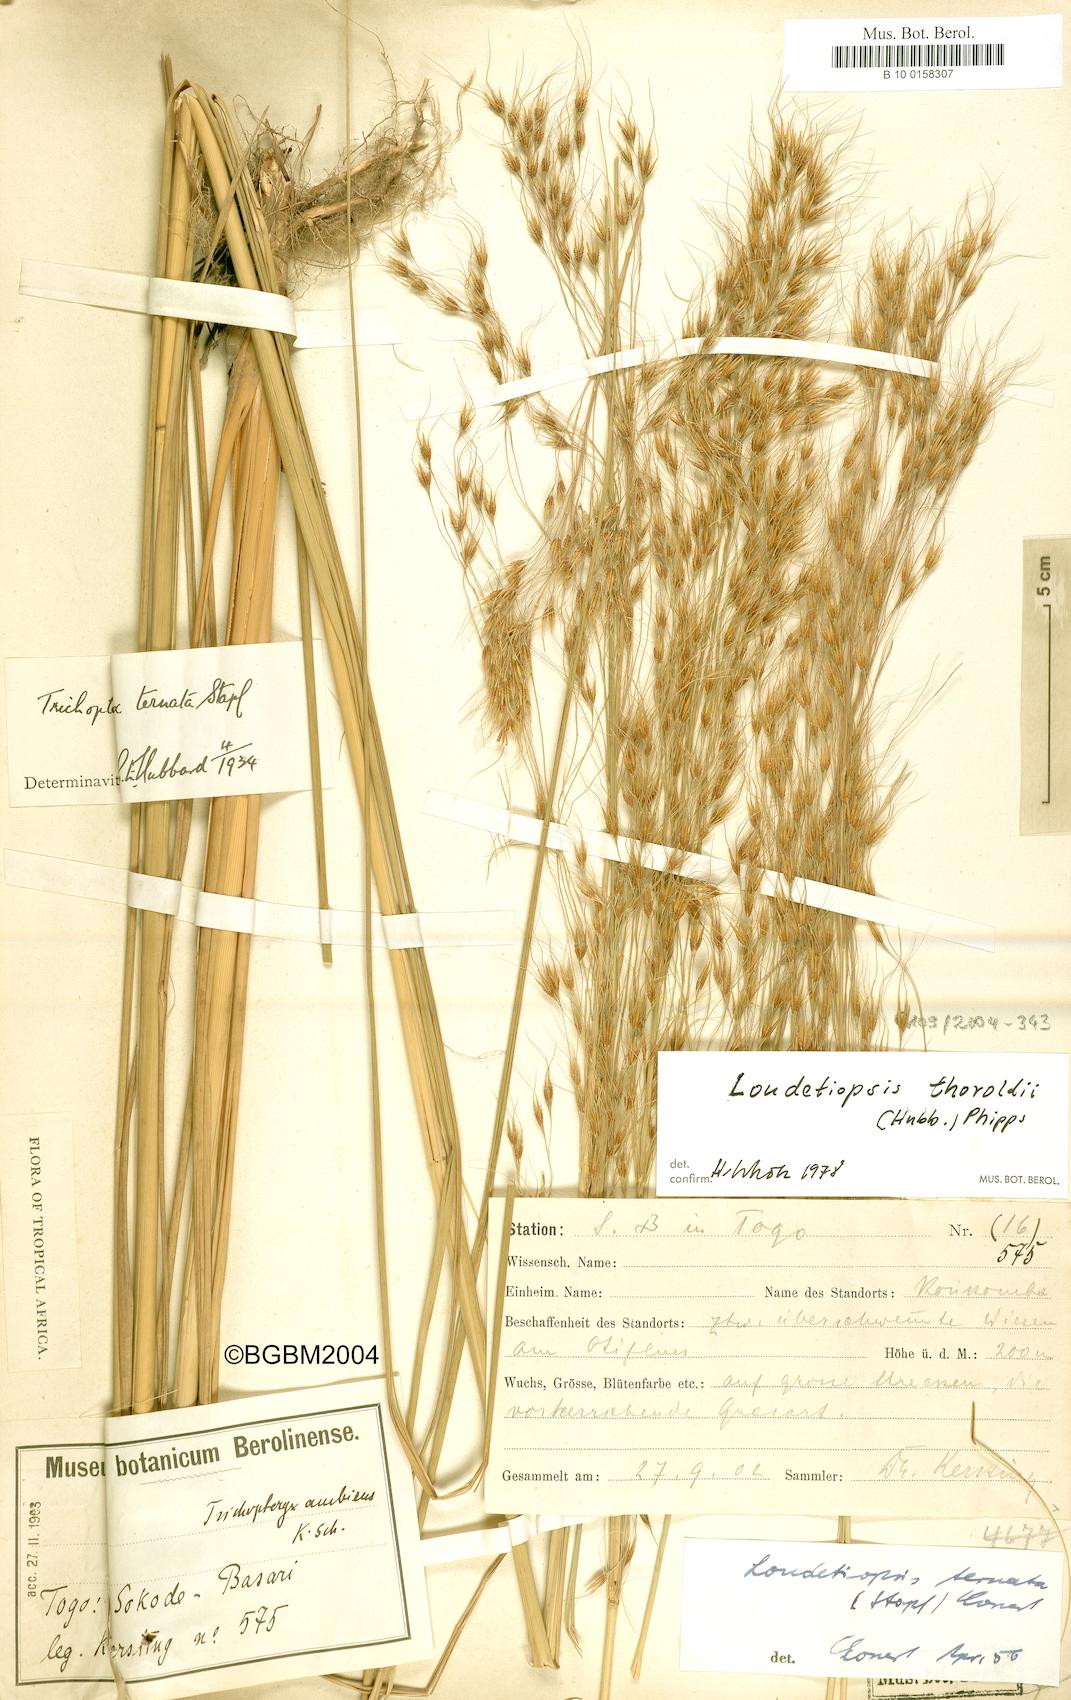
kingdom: Plantae
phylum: Tracheophyta
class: Liliopsida
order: Poales
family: Poaceae
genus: Loudetiopsis
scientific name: Loudetiopsis ambiens
